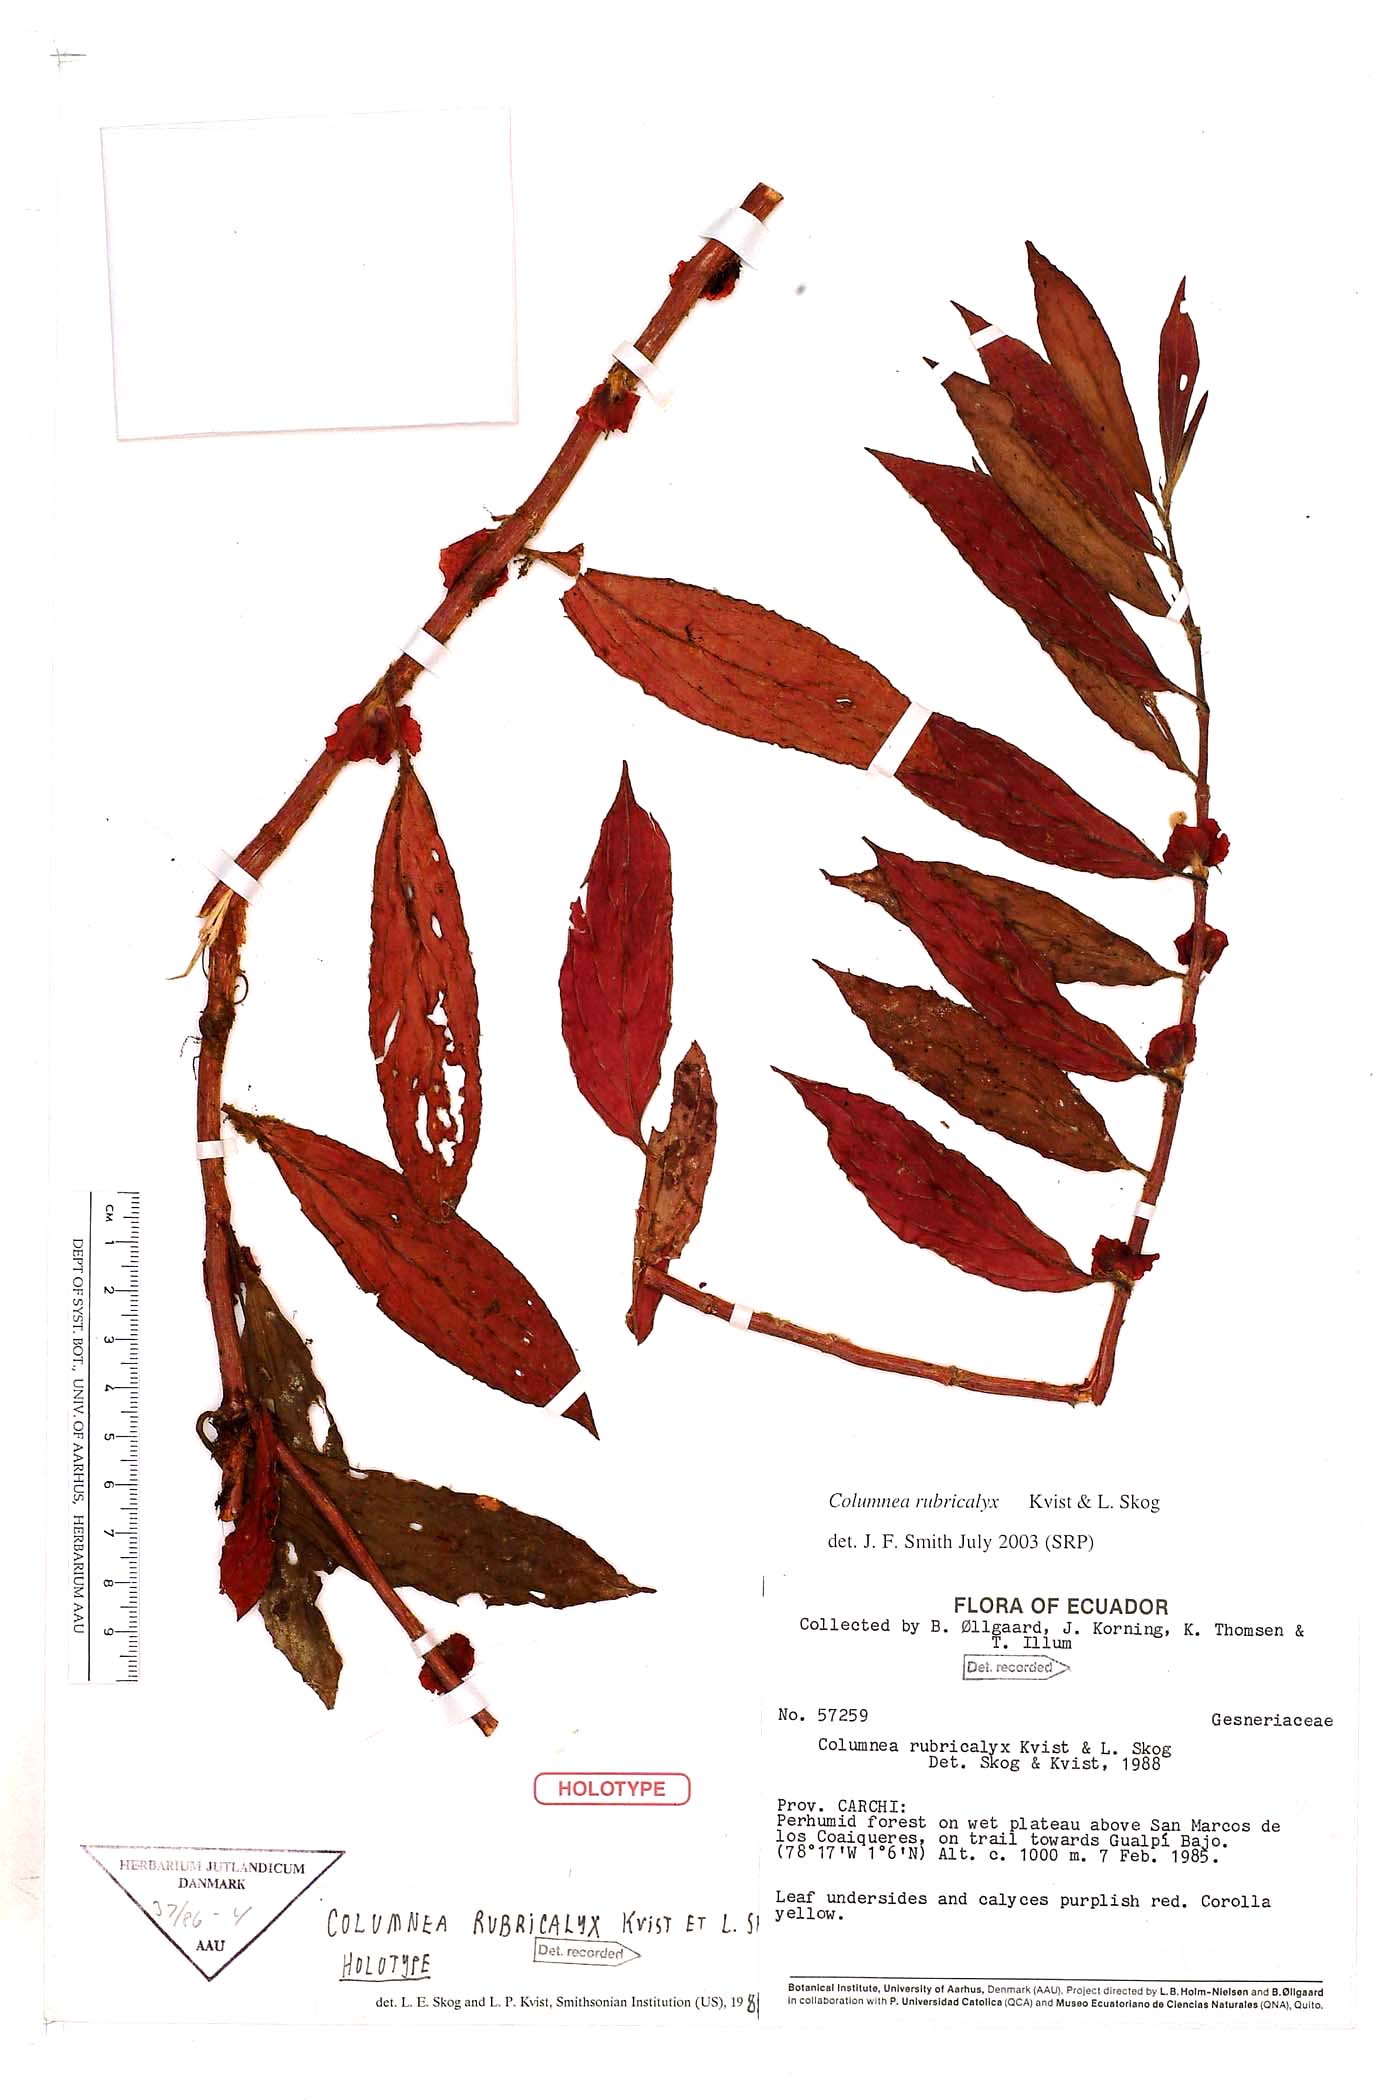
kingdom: Plantae
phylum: Tracheophyta
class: Magnoliopsida
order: Lamiales
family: Gesneriaceae
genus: Columnea
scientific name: Columnea rubricalyx
